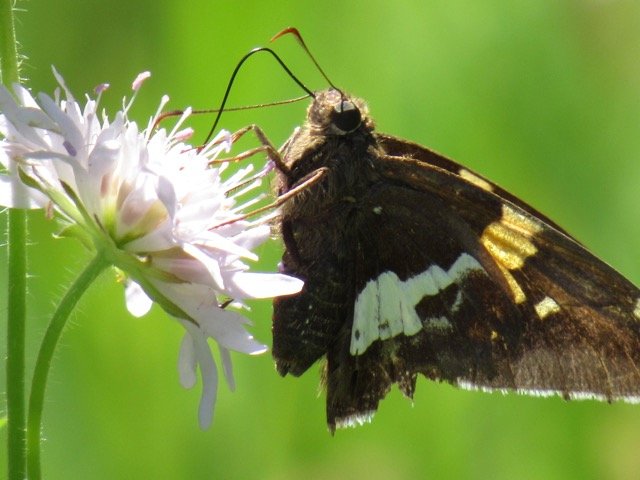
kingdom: Animalia
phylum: Arthropoda
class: Insecta
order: Lepidoptera
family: Hesperiidae
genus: Epargyreus
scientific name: Epargyreus clarus
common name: Silver-spotted Skipper
